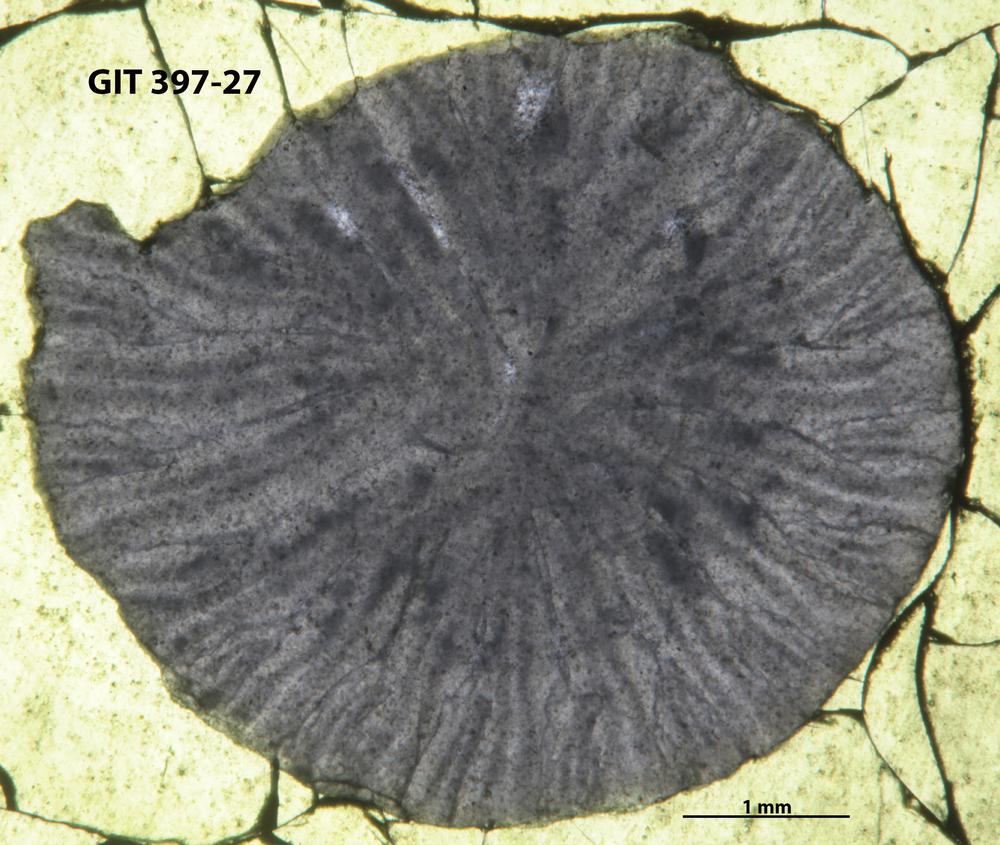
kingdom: Animalia
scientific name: Animalia
